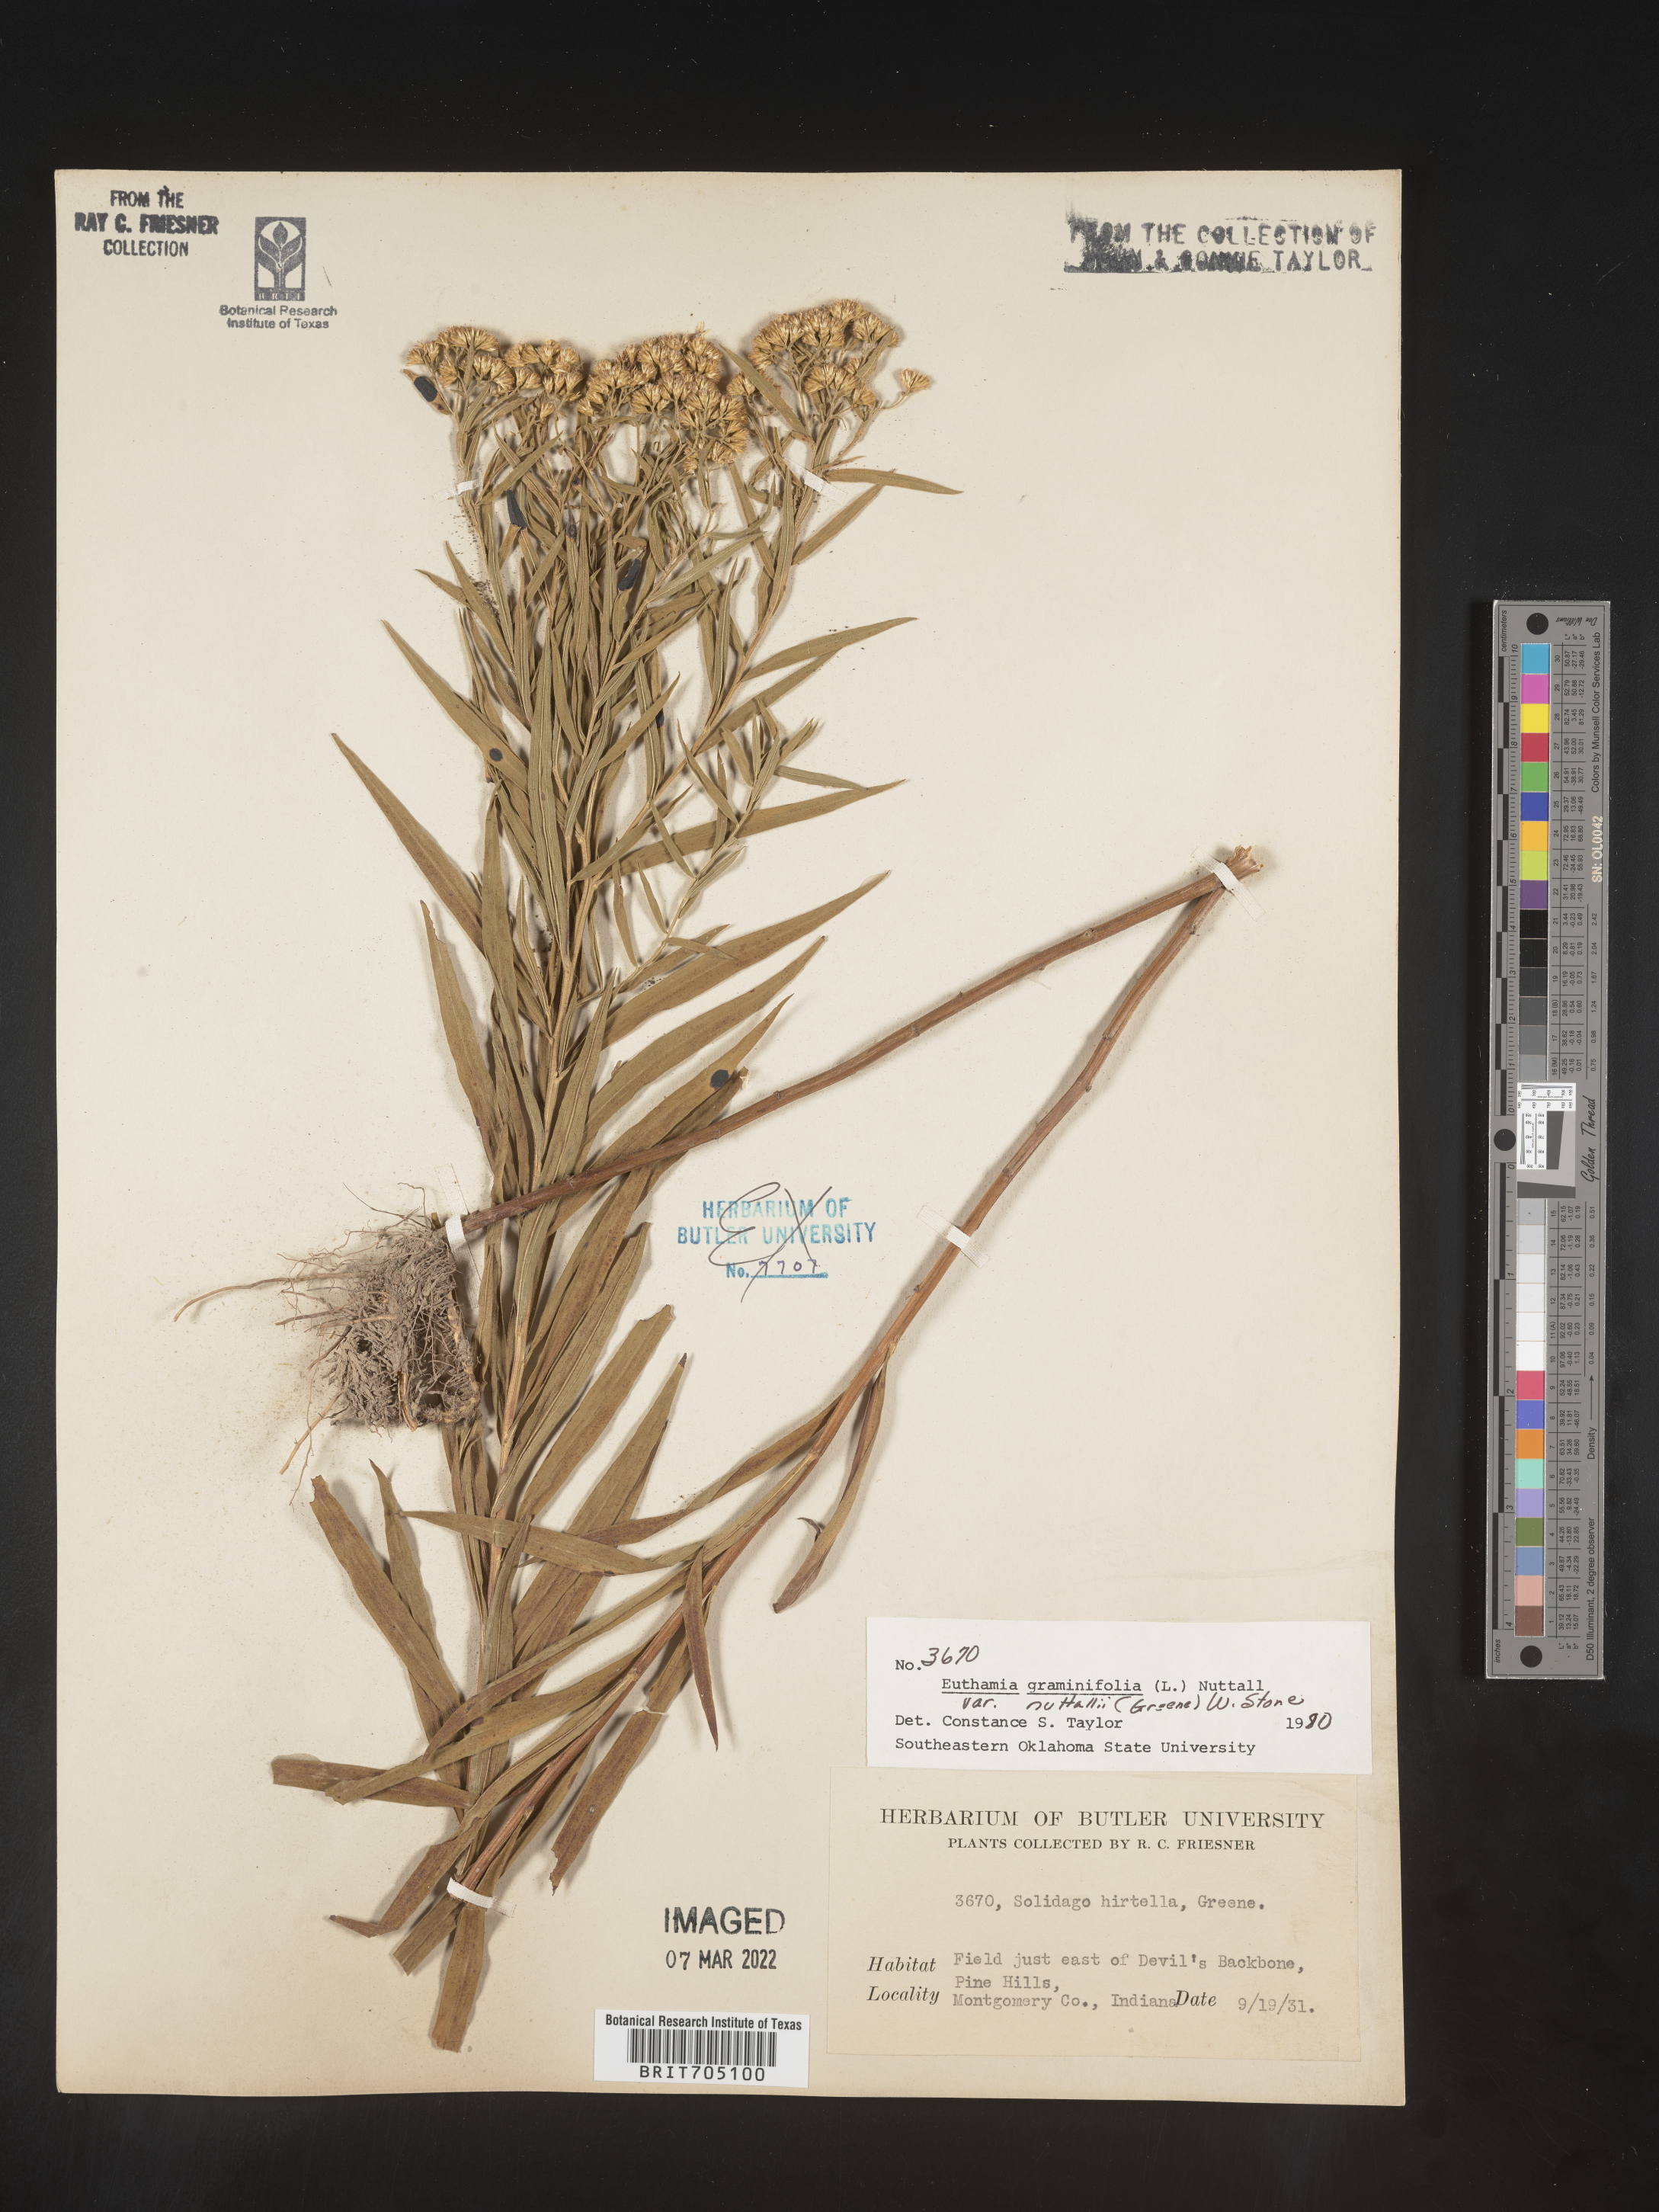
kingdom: Plantae
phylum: Tracheophyta
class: Magnoliopsida
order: Asterales
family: Asteraceae
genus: Euthamia
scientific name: Euthamia graminifolia
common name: Common goldentop
